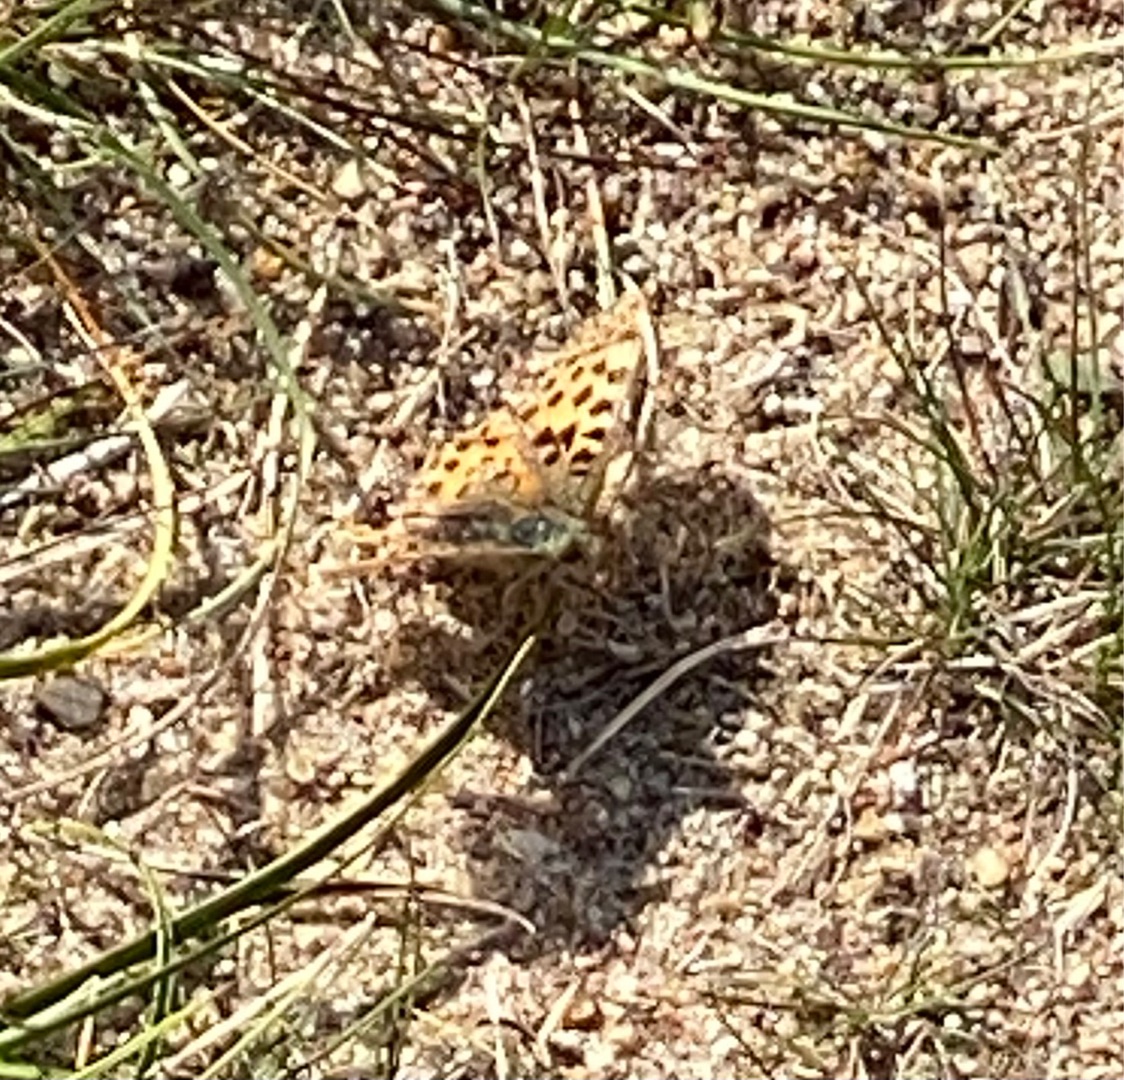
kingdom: Animalia
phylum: Arthropoda
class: Insecta
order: Lepidoptera
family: Nymphalidae
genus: Issoria
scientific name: Issoria lathonia
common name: Storplettet perlemorsommerfugl
